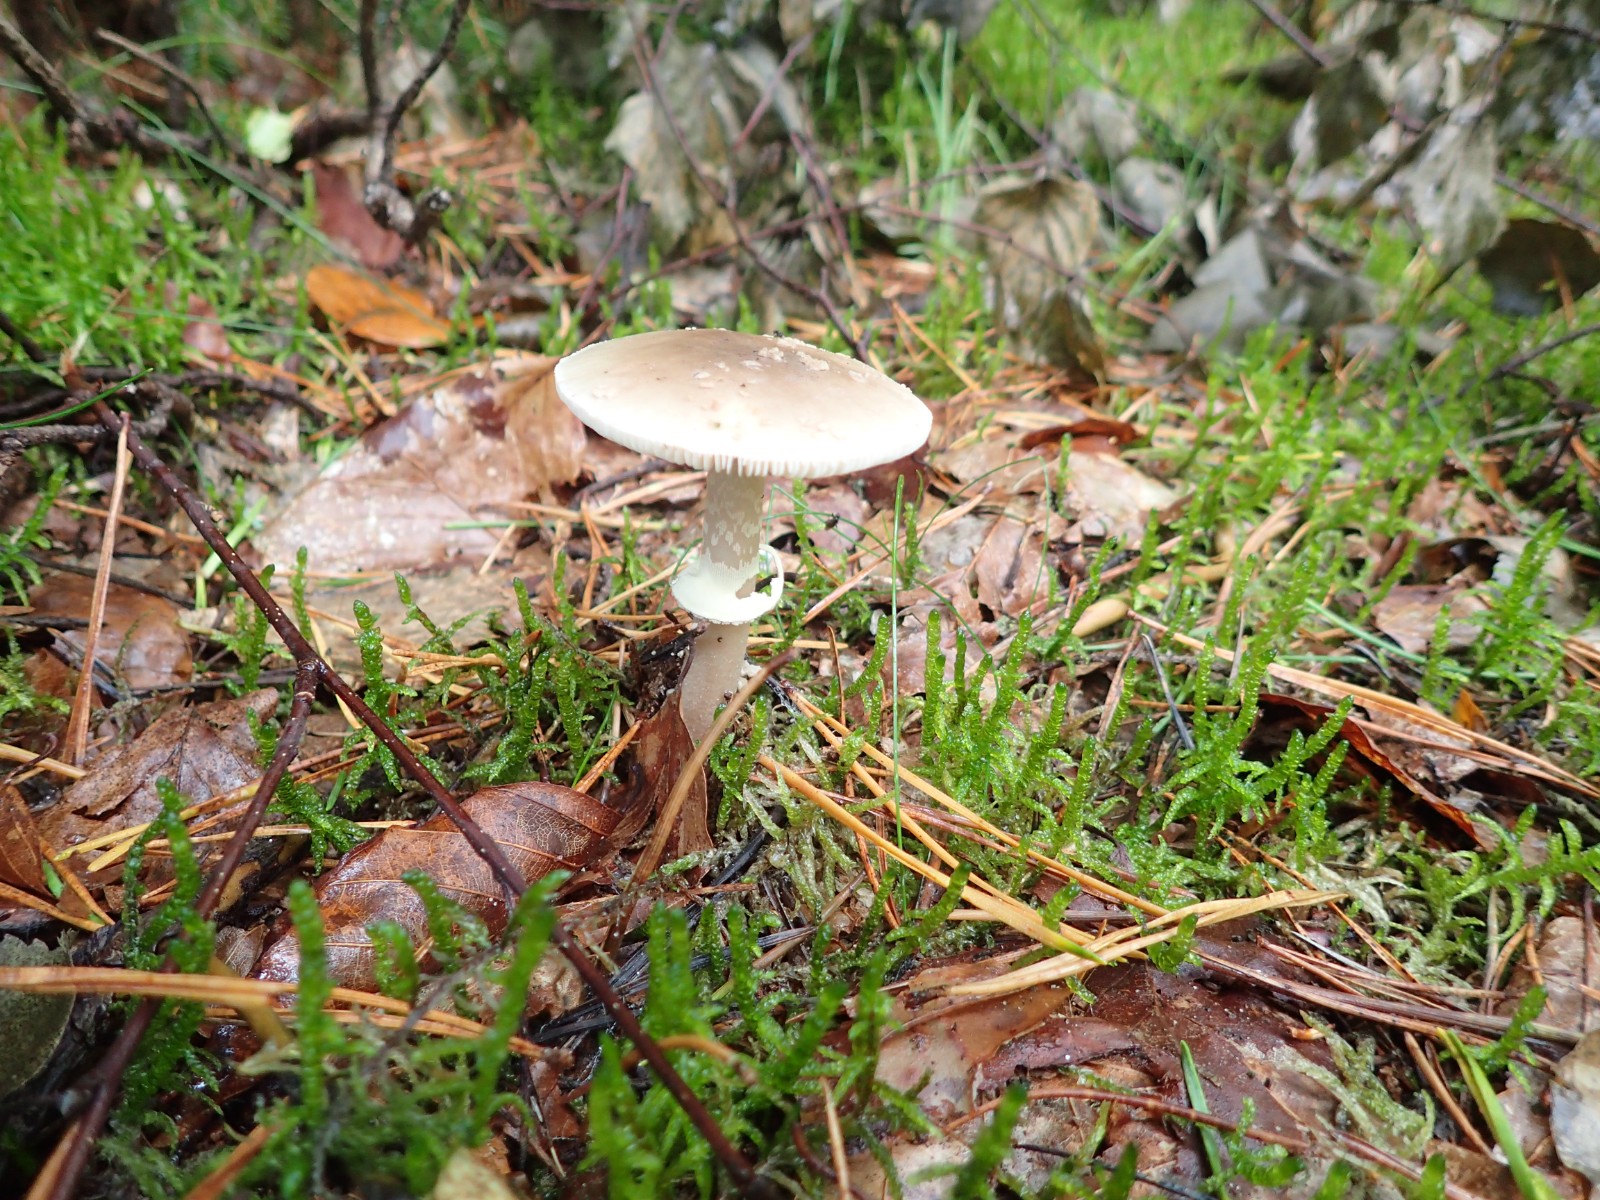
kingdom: Fungi
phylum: Basidiomycota
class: Agaricomycetes
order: Agaricales
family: Amanitaceae
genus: Amanita
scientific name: Amanita porphyria
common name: porfyr-fluesvamp
